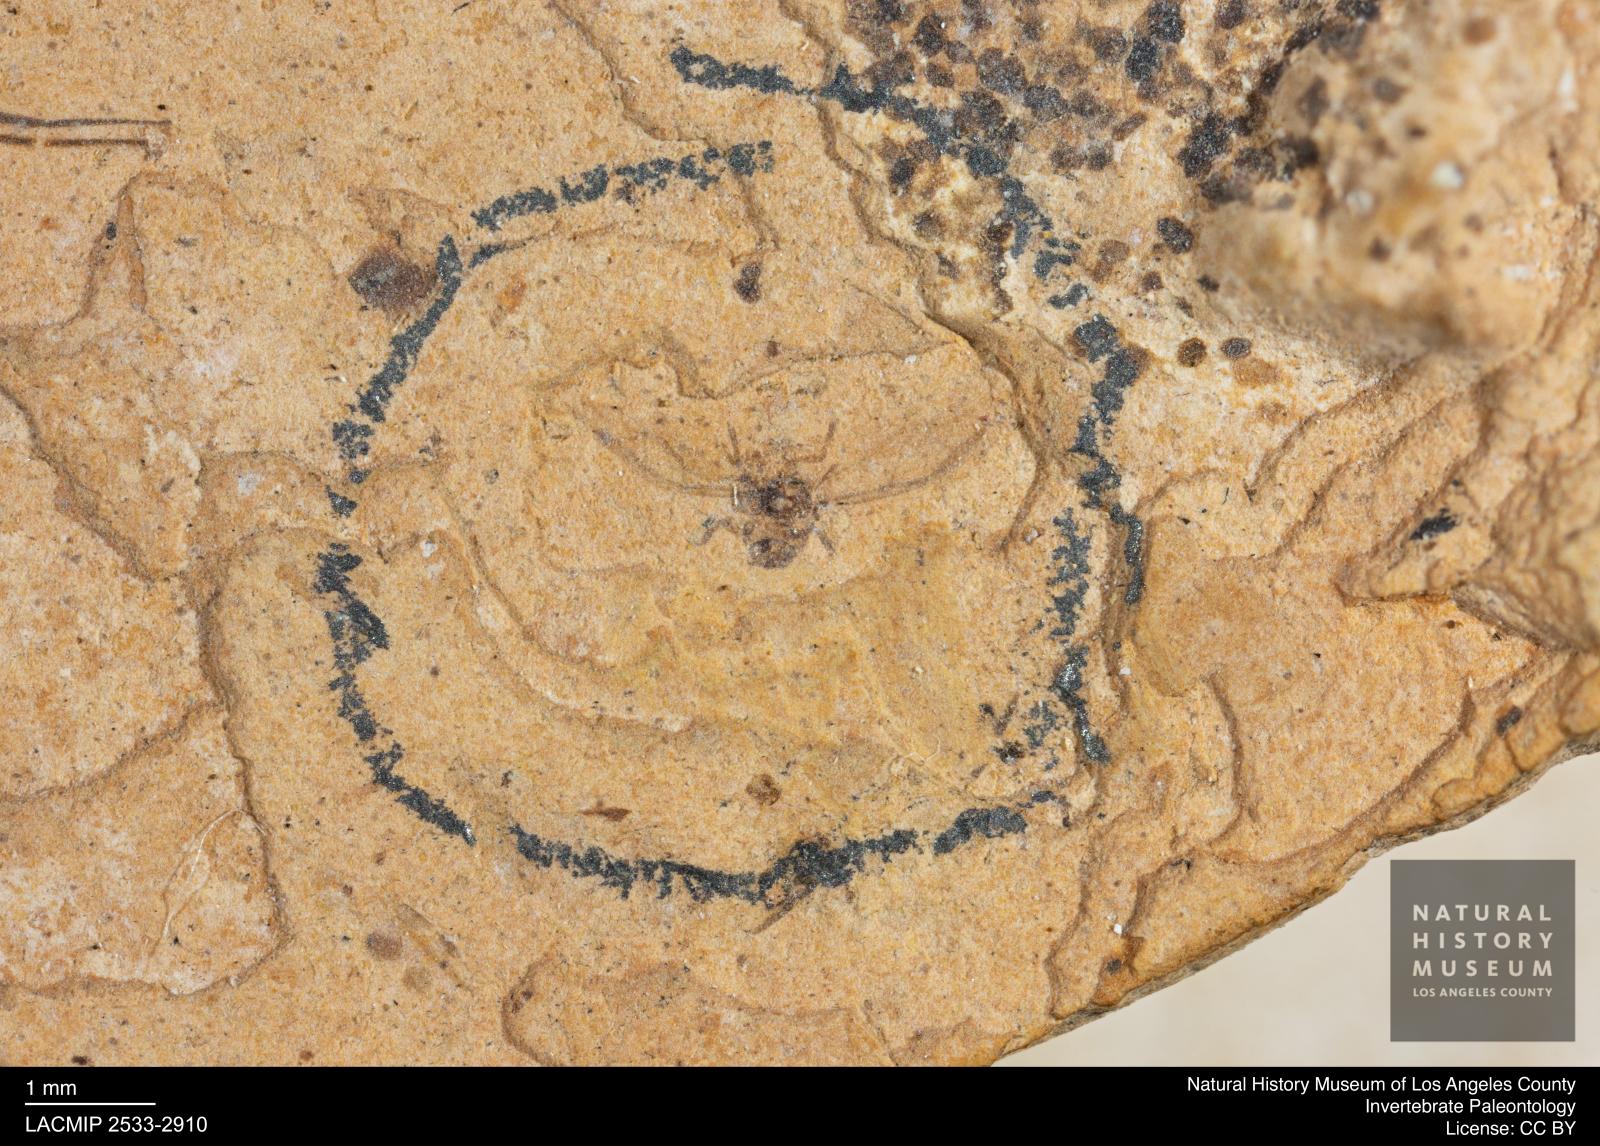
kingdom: Animalia
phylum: Arthropoda
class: Insecta
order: Hemiptera
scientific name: Hemiptera
